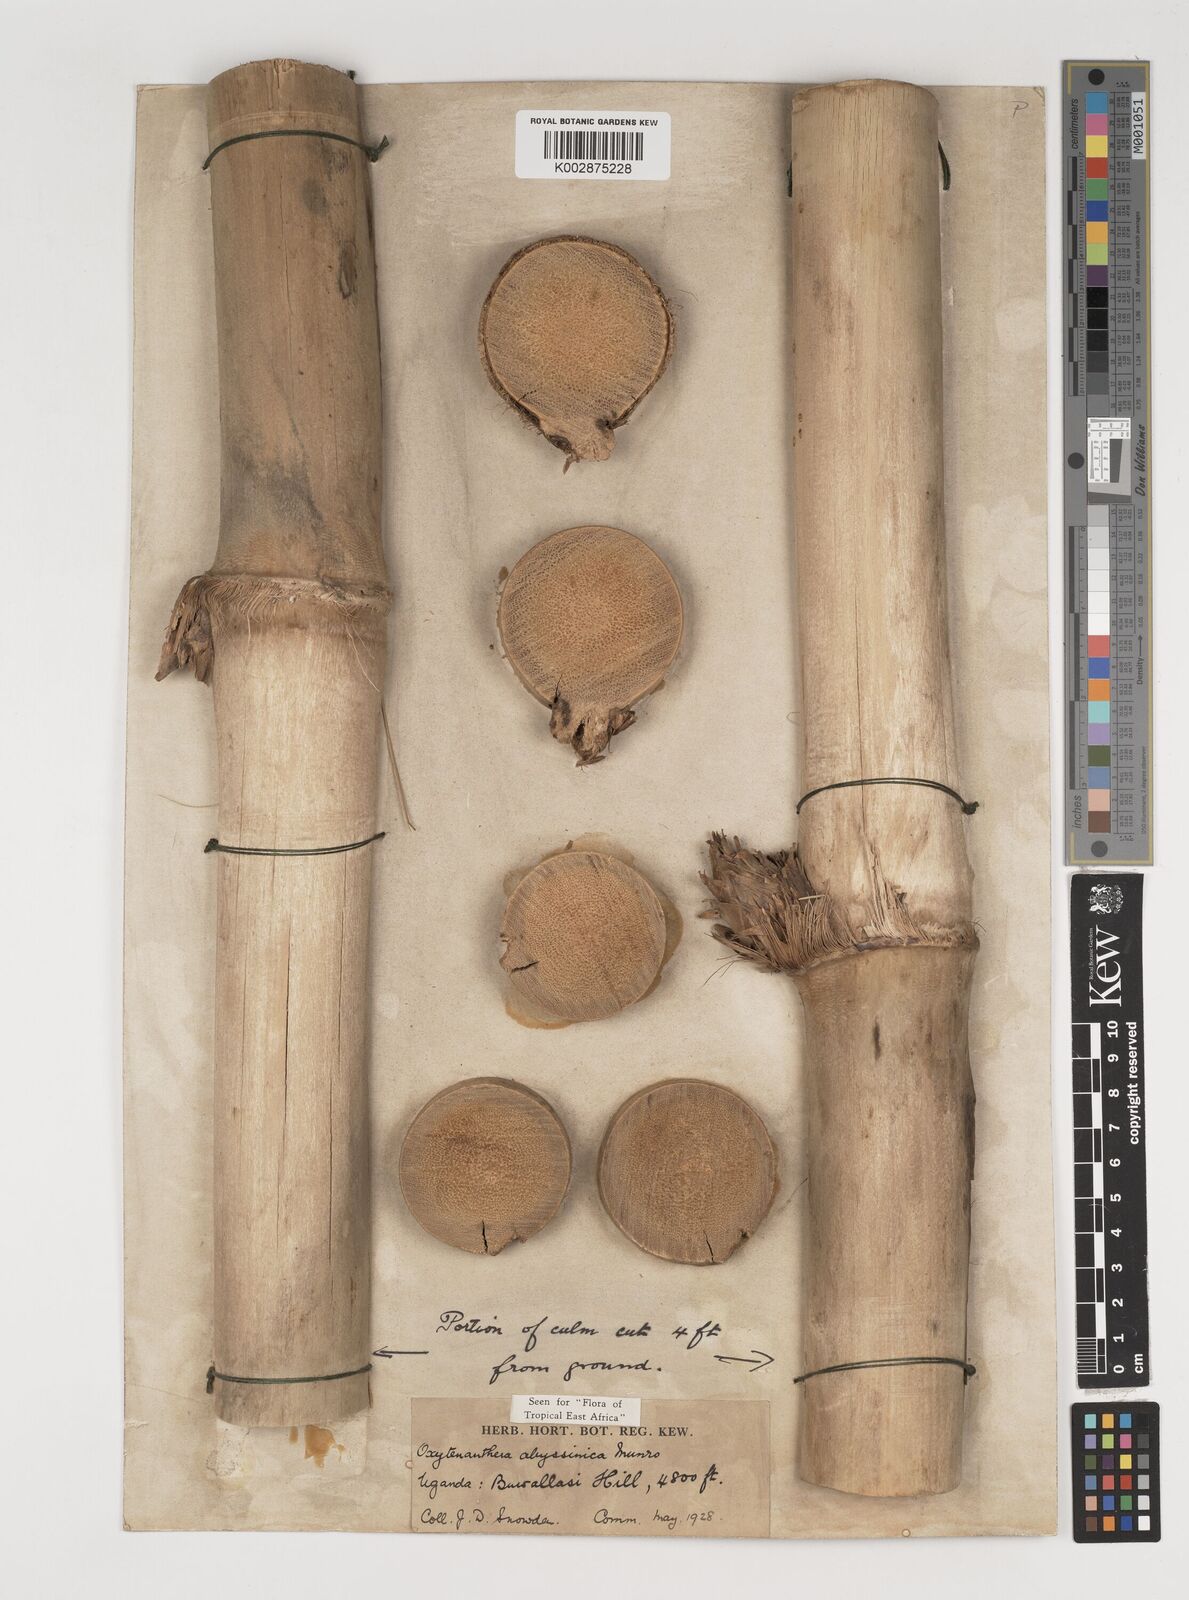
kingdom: Plantae
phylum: Tracheophyta
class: Liliopsida
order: Poales
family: Poaceae
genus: Oxytenanthera
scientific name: Oxytenanthera abyssinica
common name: Wine bamboo
